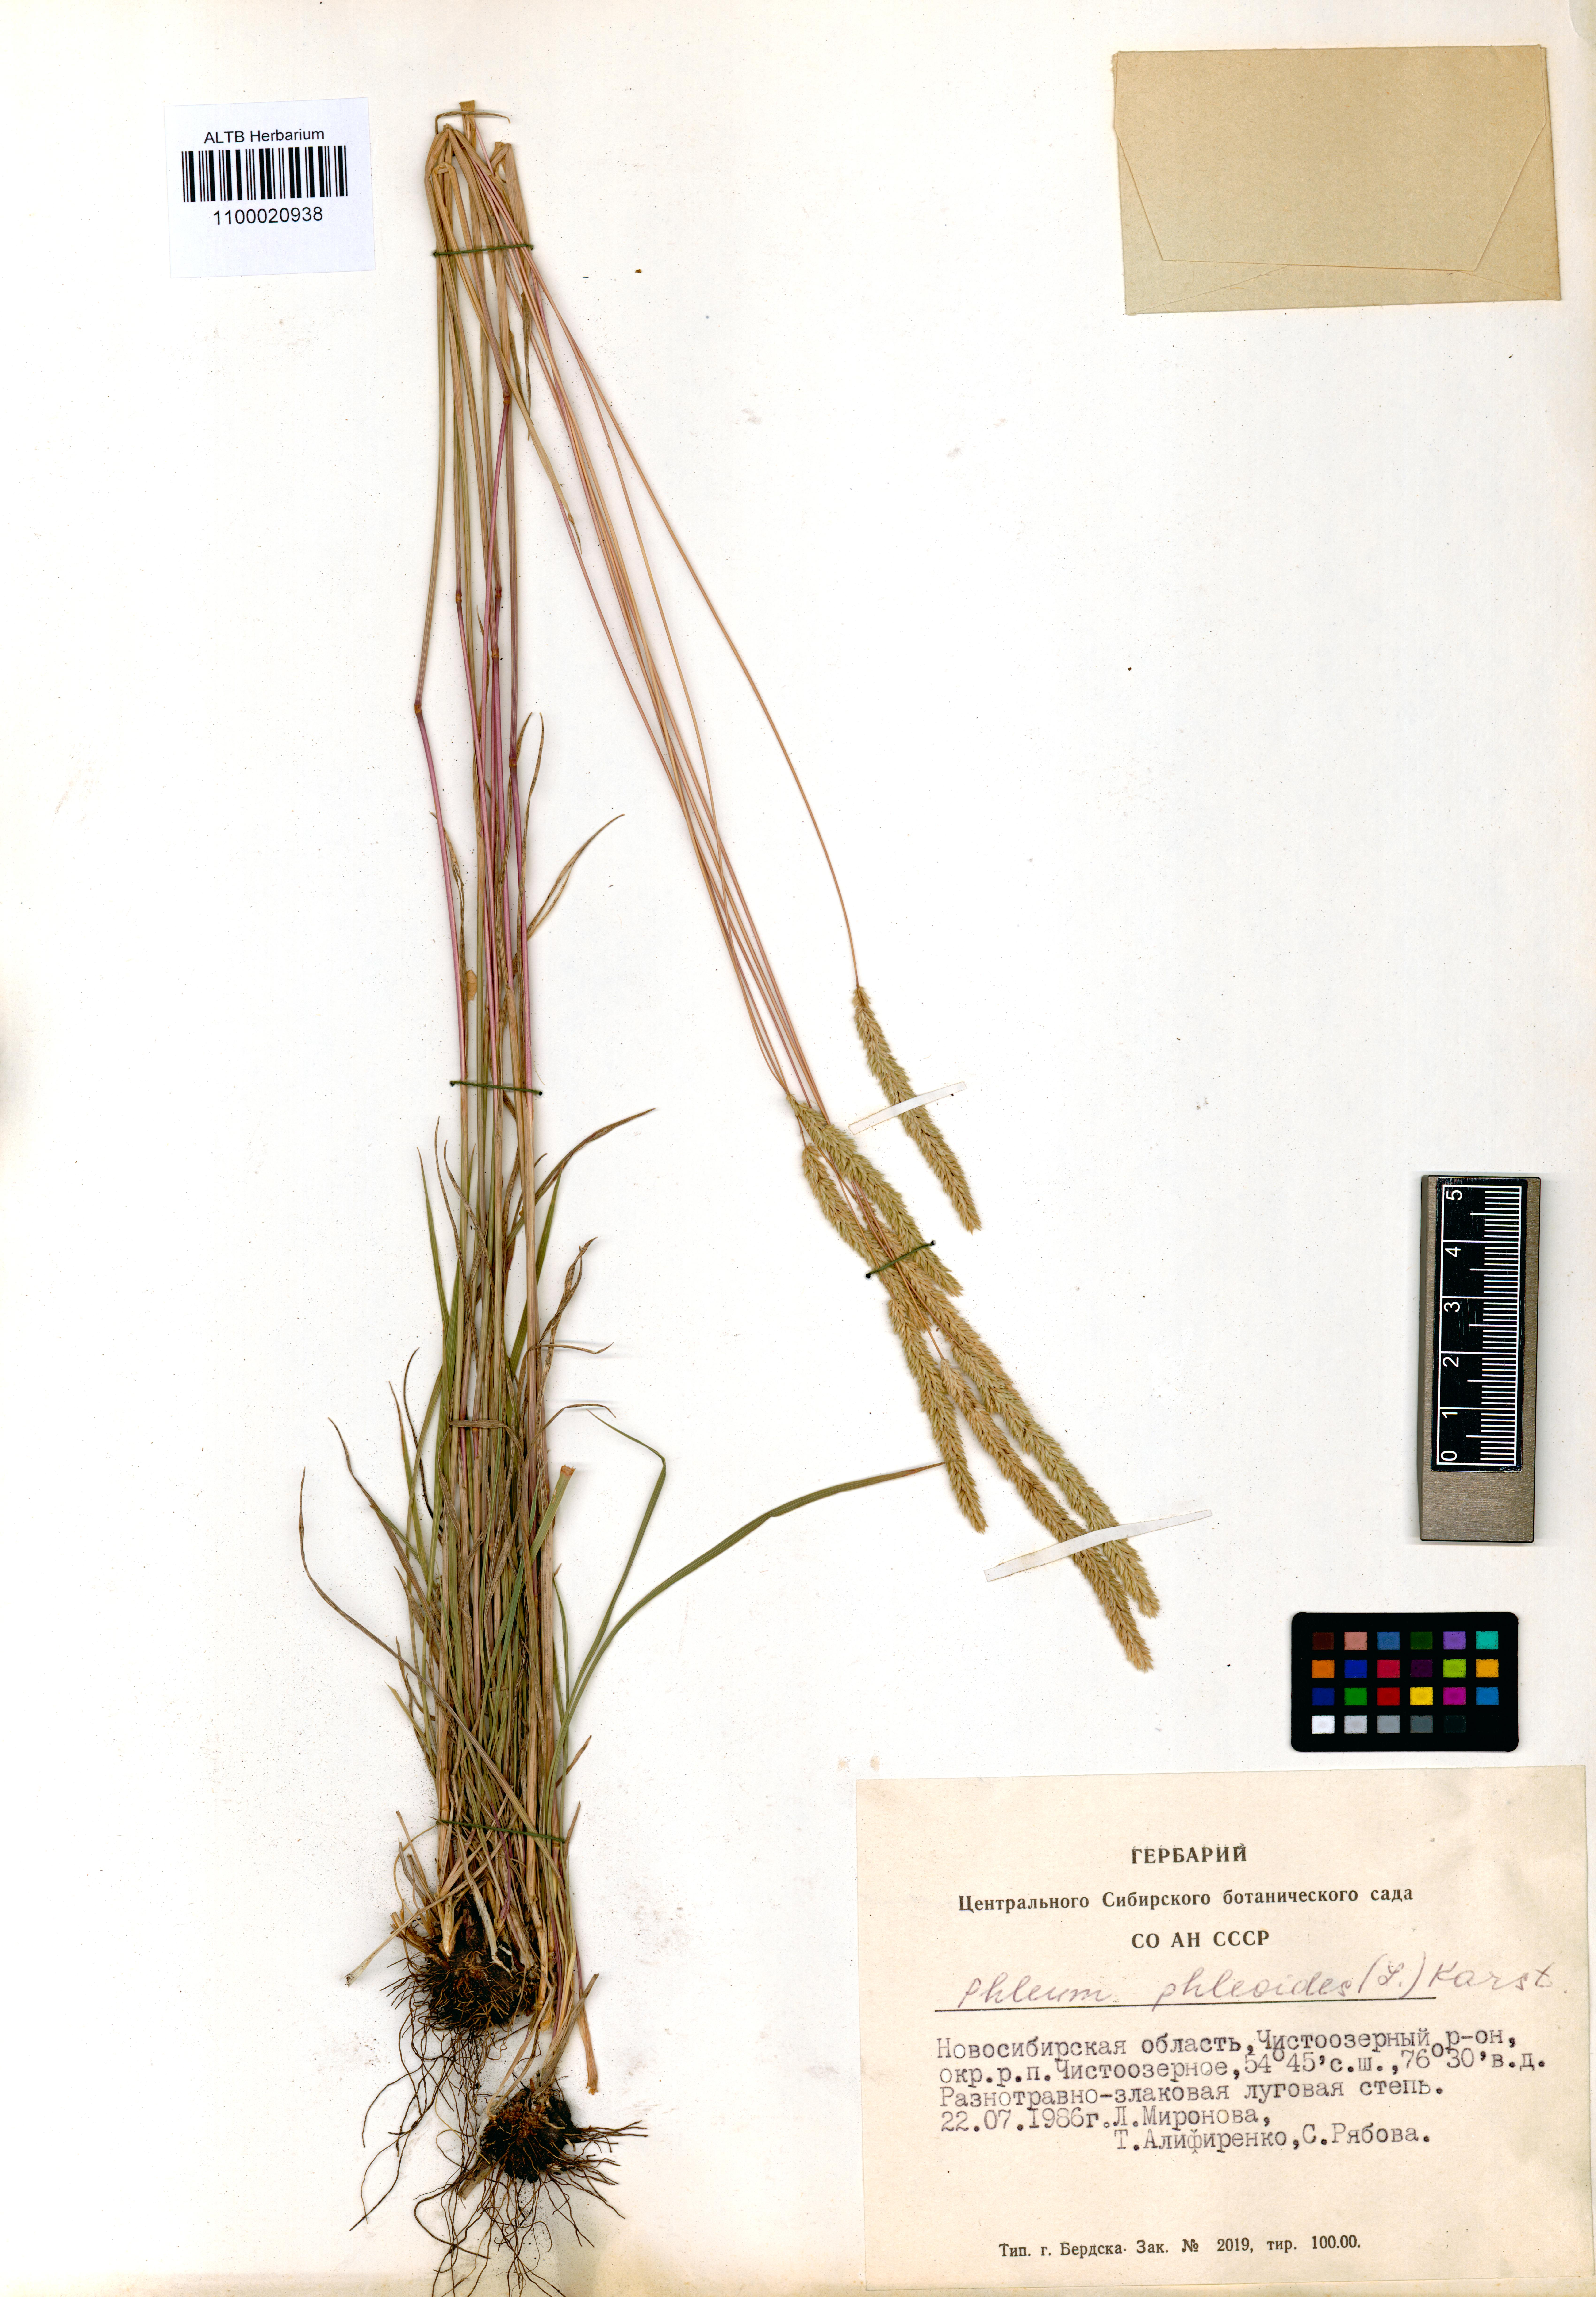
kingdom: Plantae
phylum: Tracheophyta
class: Liliopsida
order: Poales
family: Poaceae
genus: Phleum
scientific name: Phleum phleoides
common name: Purple-stem cat's-tail
